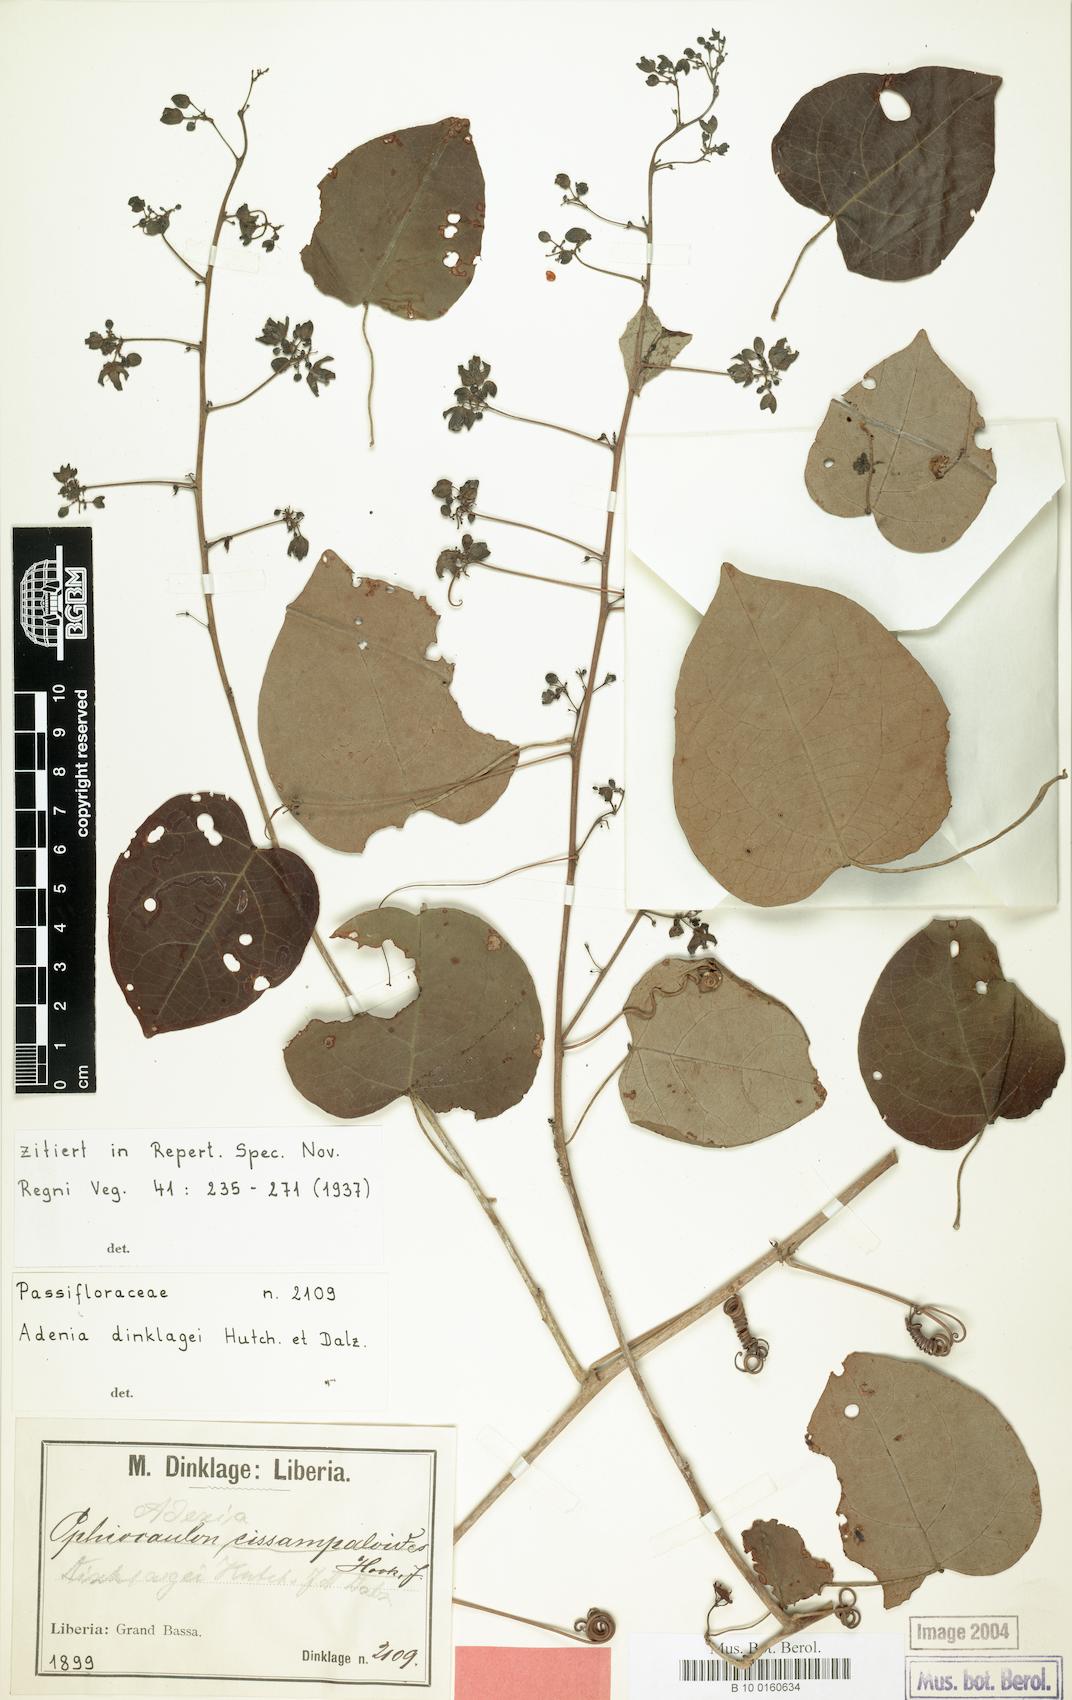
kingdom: Plantae
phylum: Tracheophyta
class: Magnoliopsida
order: Malpighiales
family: Passifloraceae
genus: Adenia
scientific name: Adenia dinklagei
